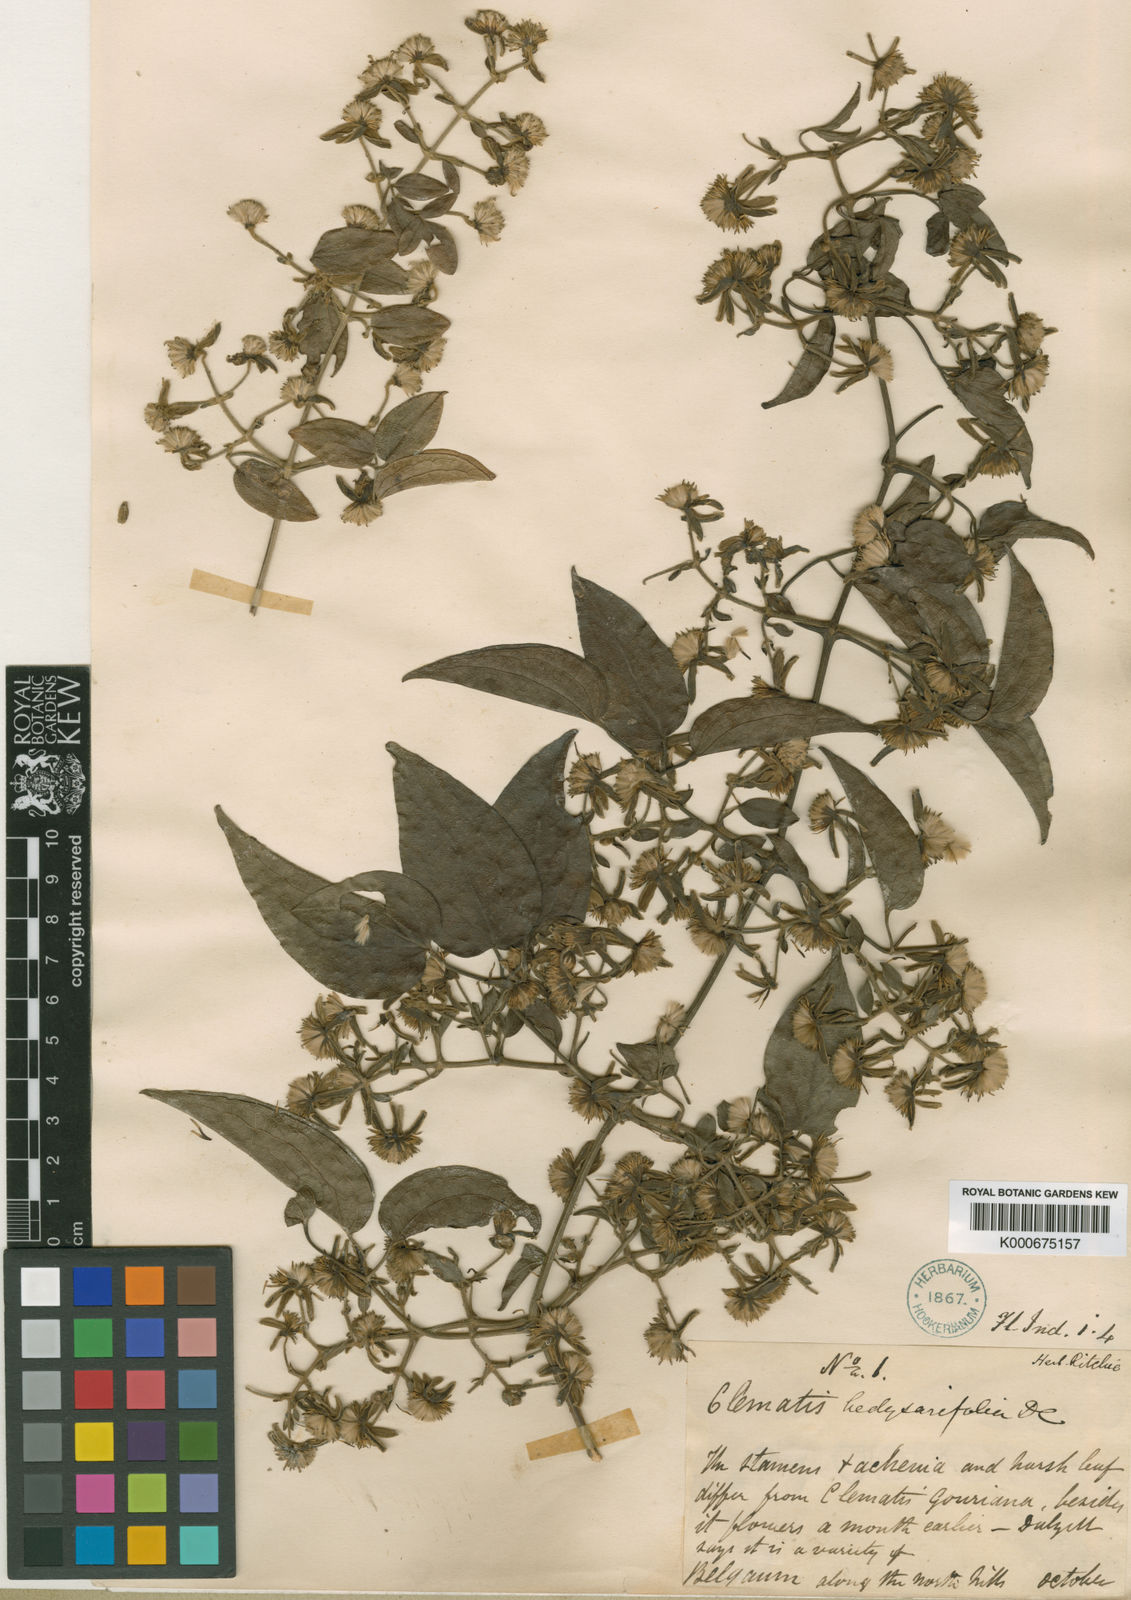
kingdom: Plantae
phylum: Tracheophyta
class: Magnoliopsida
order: Ranunculales
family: Ranunculaceae
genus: Clematis
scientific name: Clematis hedysarifolia
